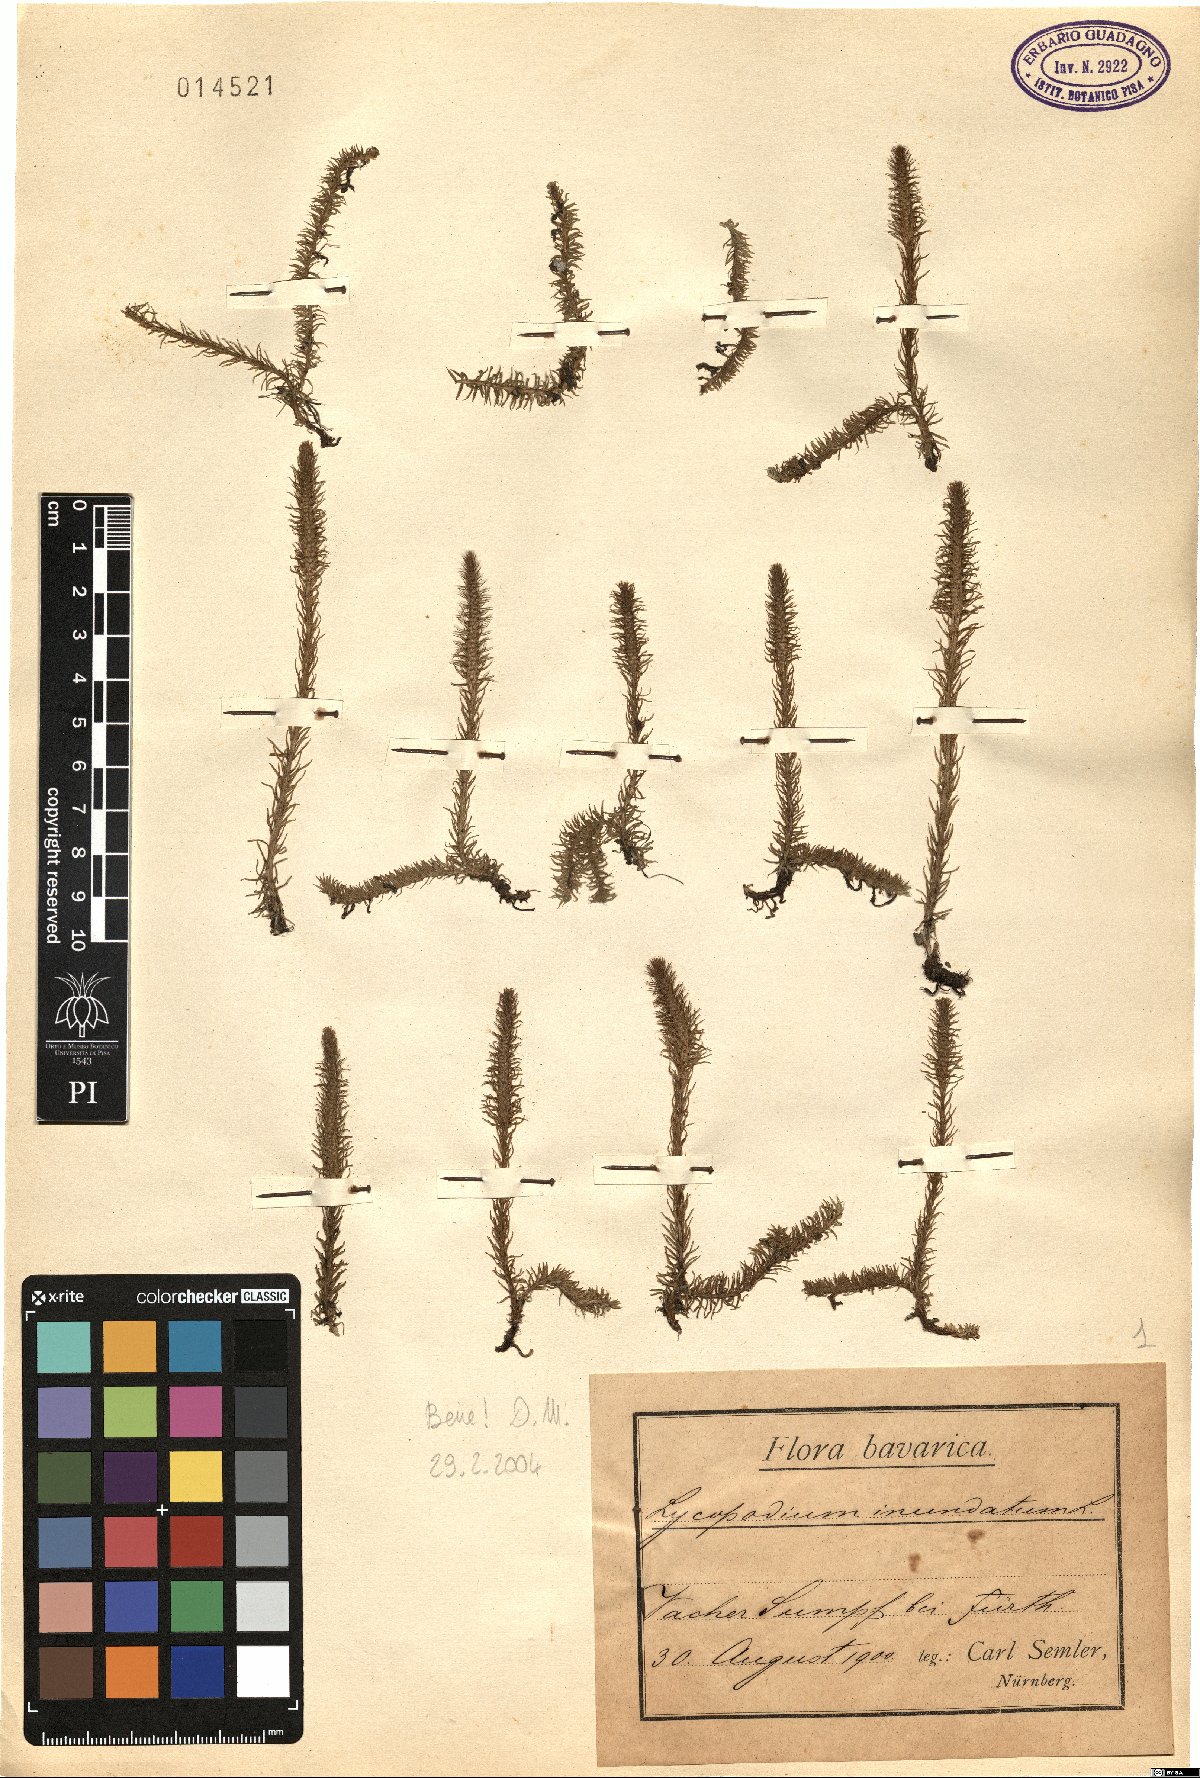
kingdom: Plantae
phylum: Tracheophyta
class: Lycopodiopsida
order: Lycopodiales
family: Lycopodiaceae
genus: Lycopodiella
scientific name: Lycopodiella inundata
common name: Marsh clubmoss
